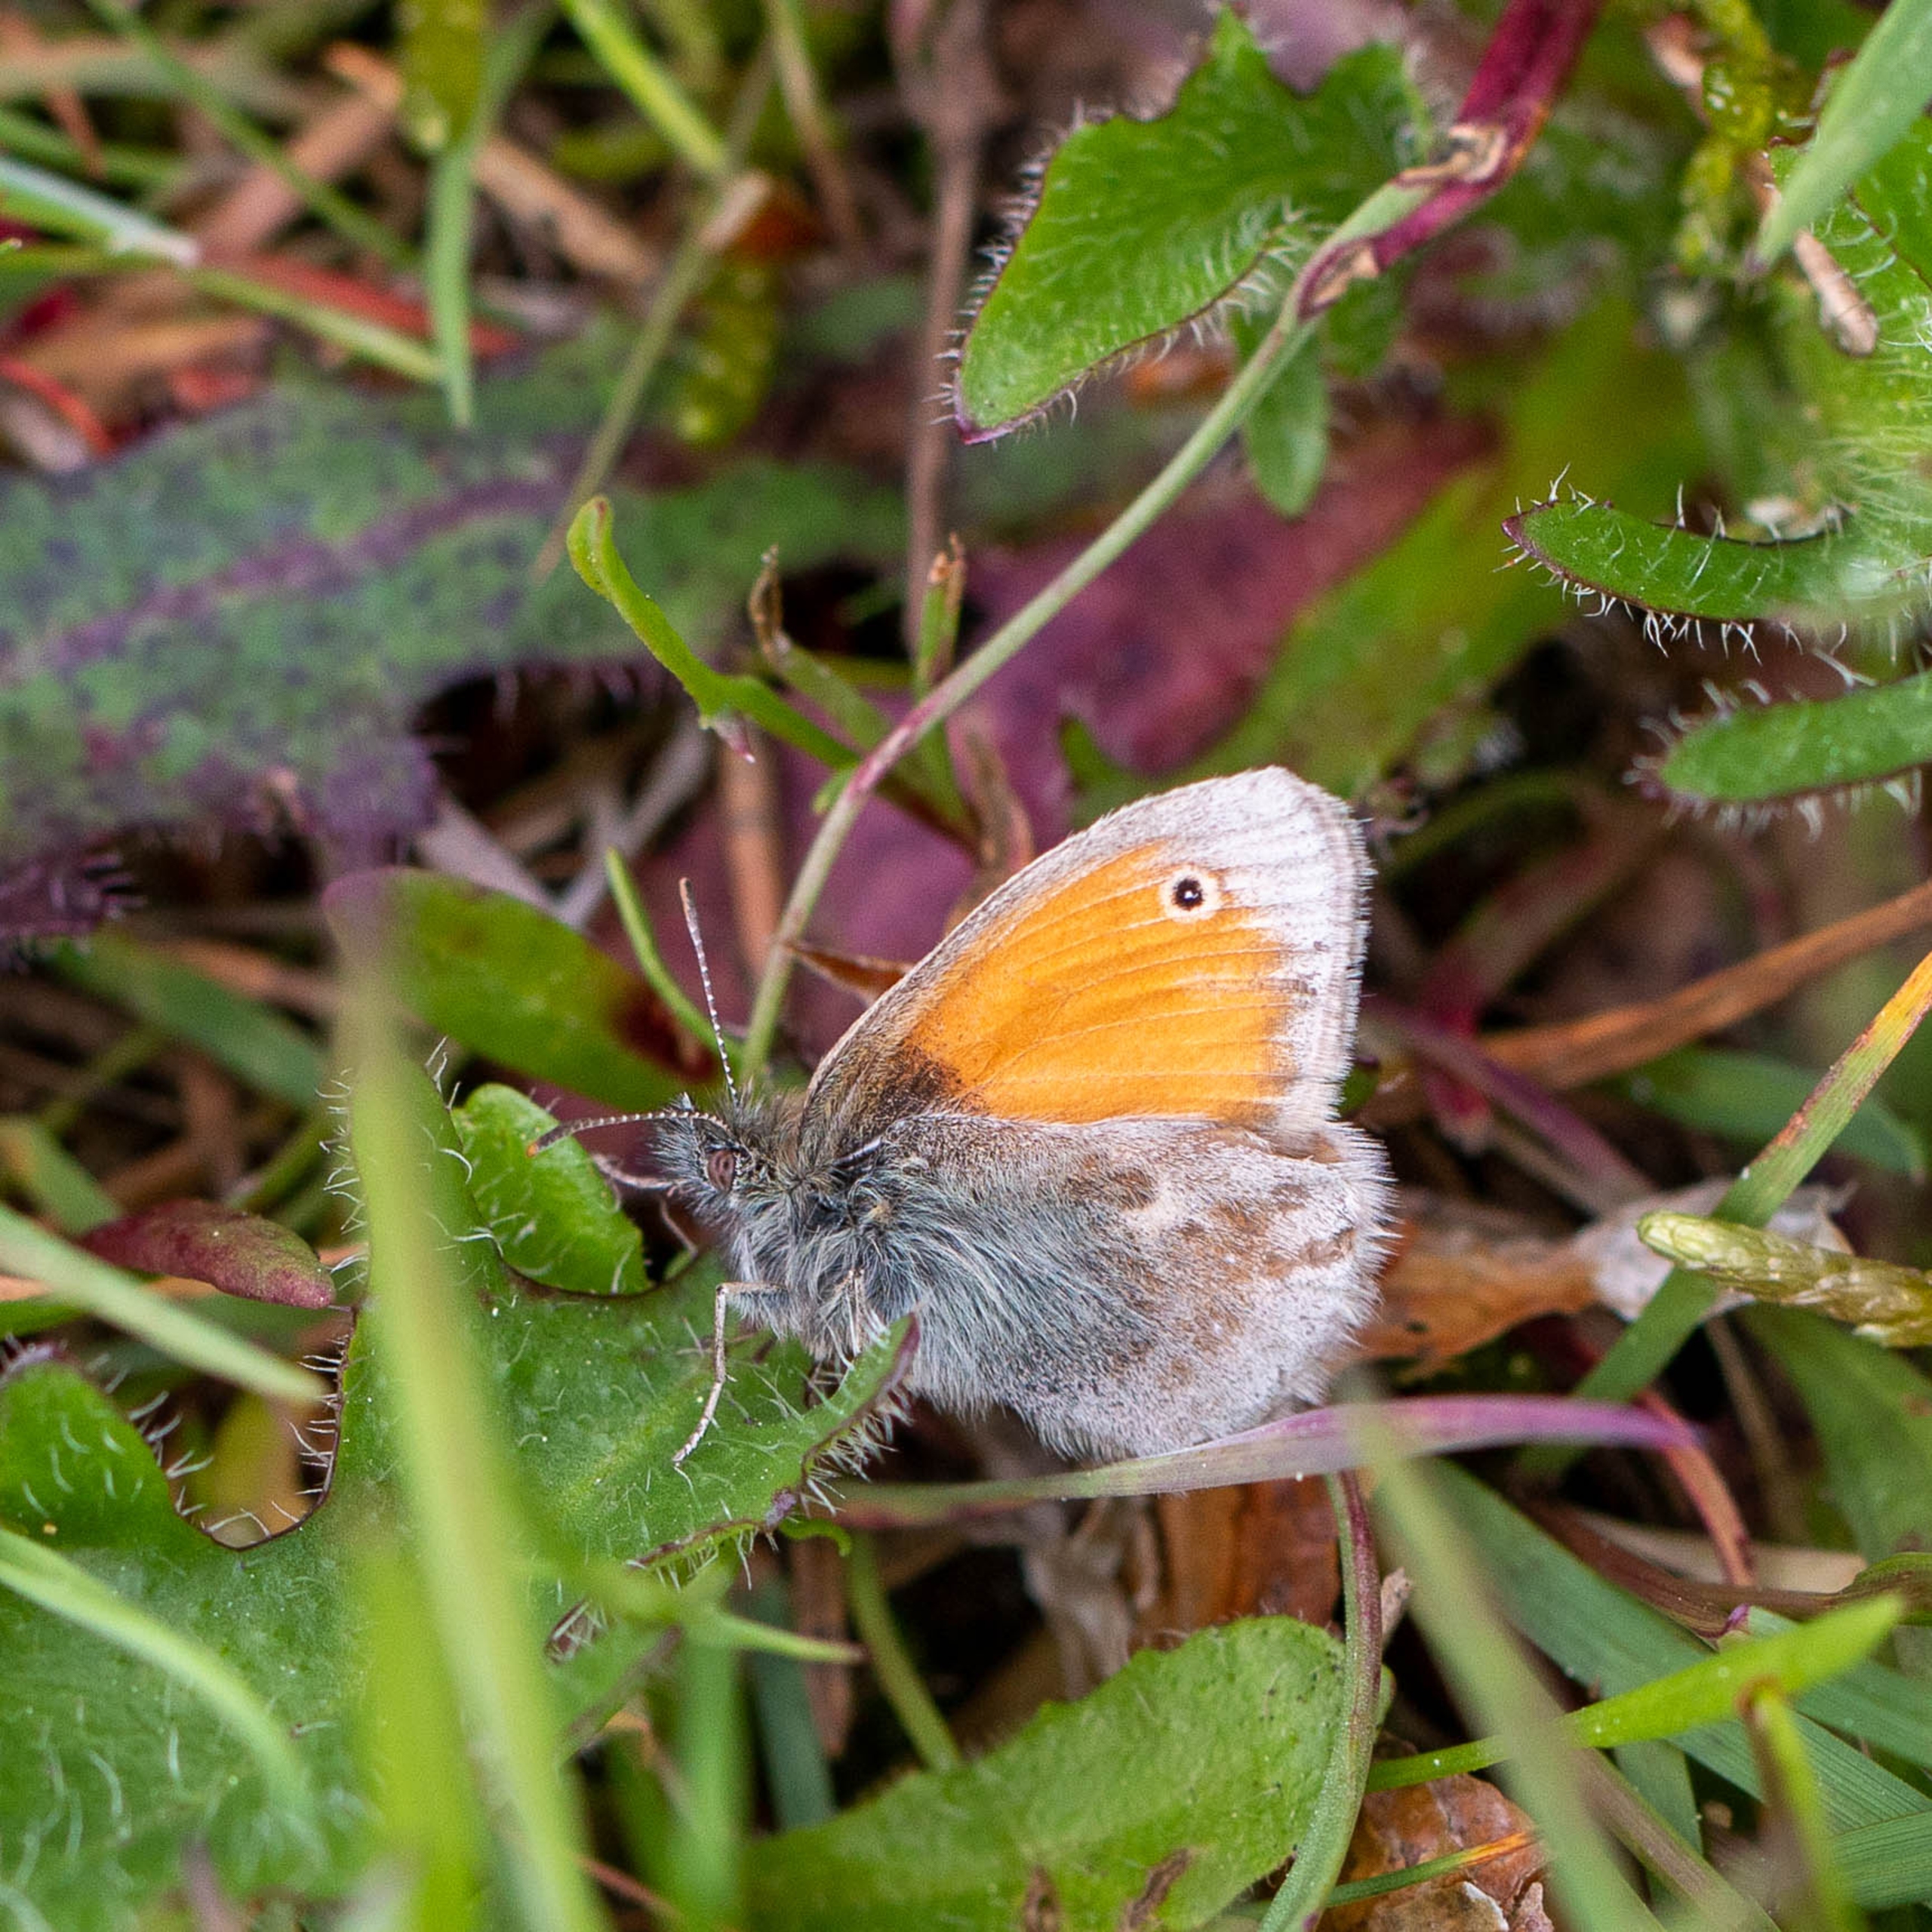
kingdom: Animalia
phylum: Arthropoda
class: Insecta
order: Lepidoptera
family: Nymphalidae
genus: Coenonympha
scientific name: Coenonympha pamphilus
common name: Okkergul randøje
